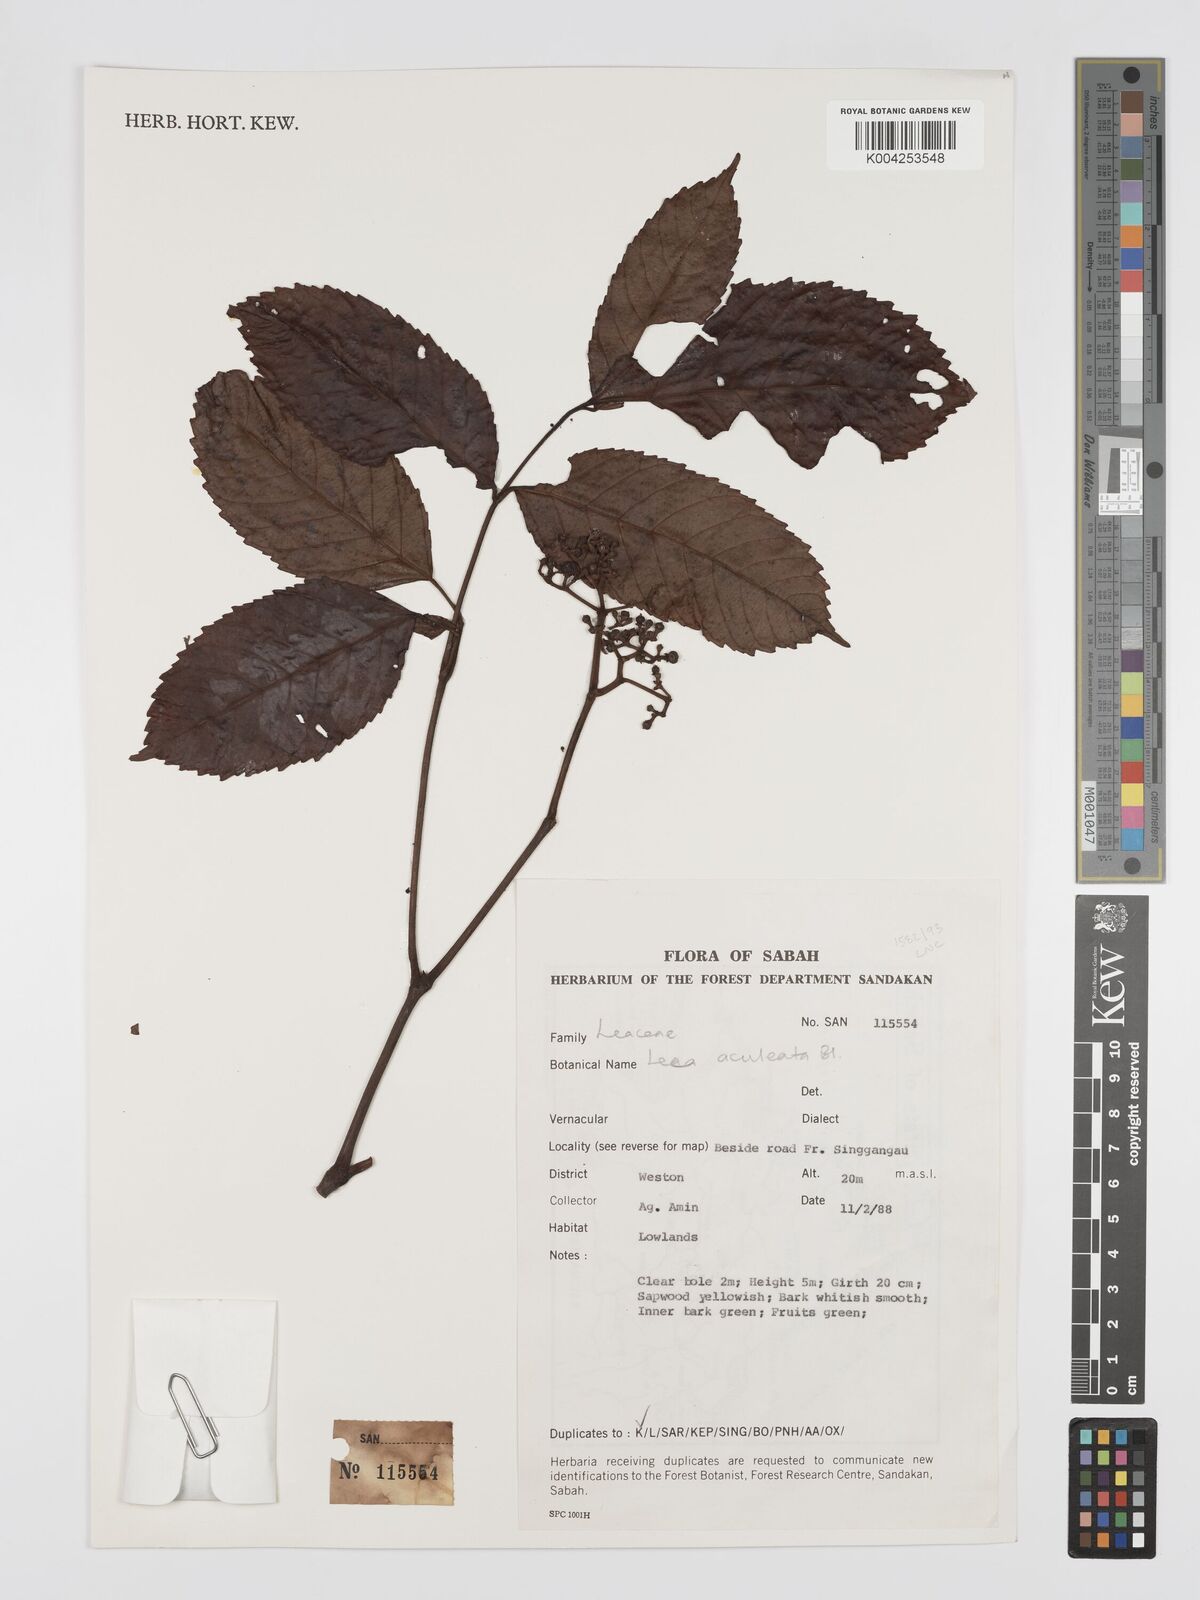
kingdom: Plantae
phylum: Tracheophyta
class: Magnoliopsida
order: Vitales
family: Vitaceae
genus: Leea
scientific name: Leea aculeata
